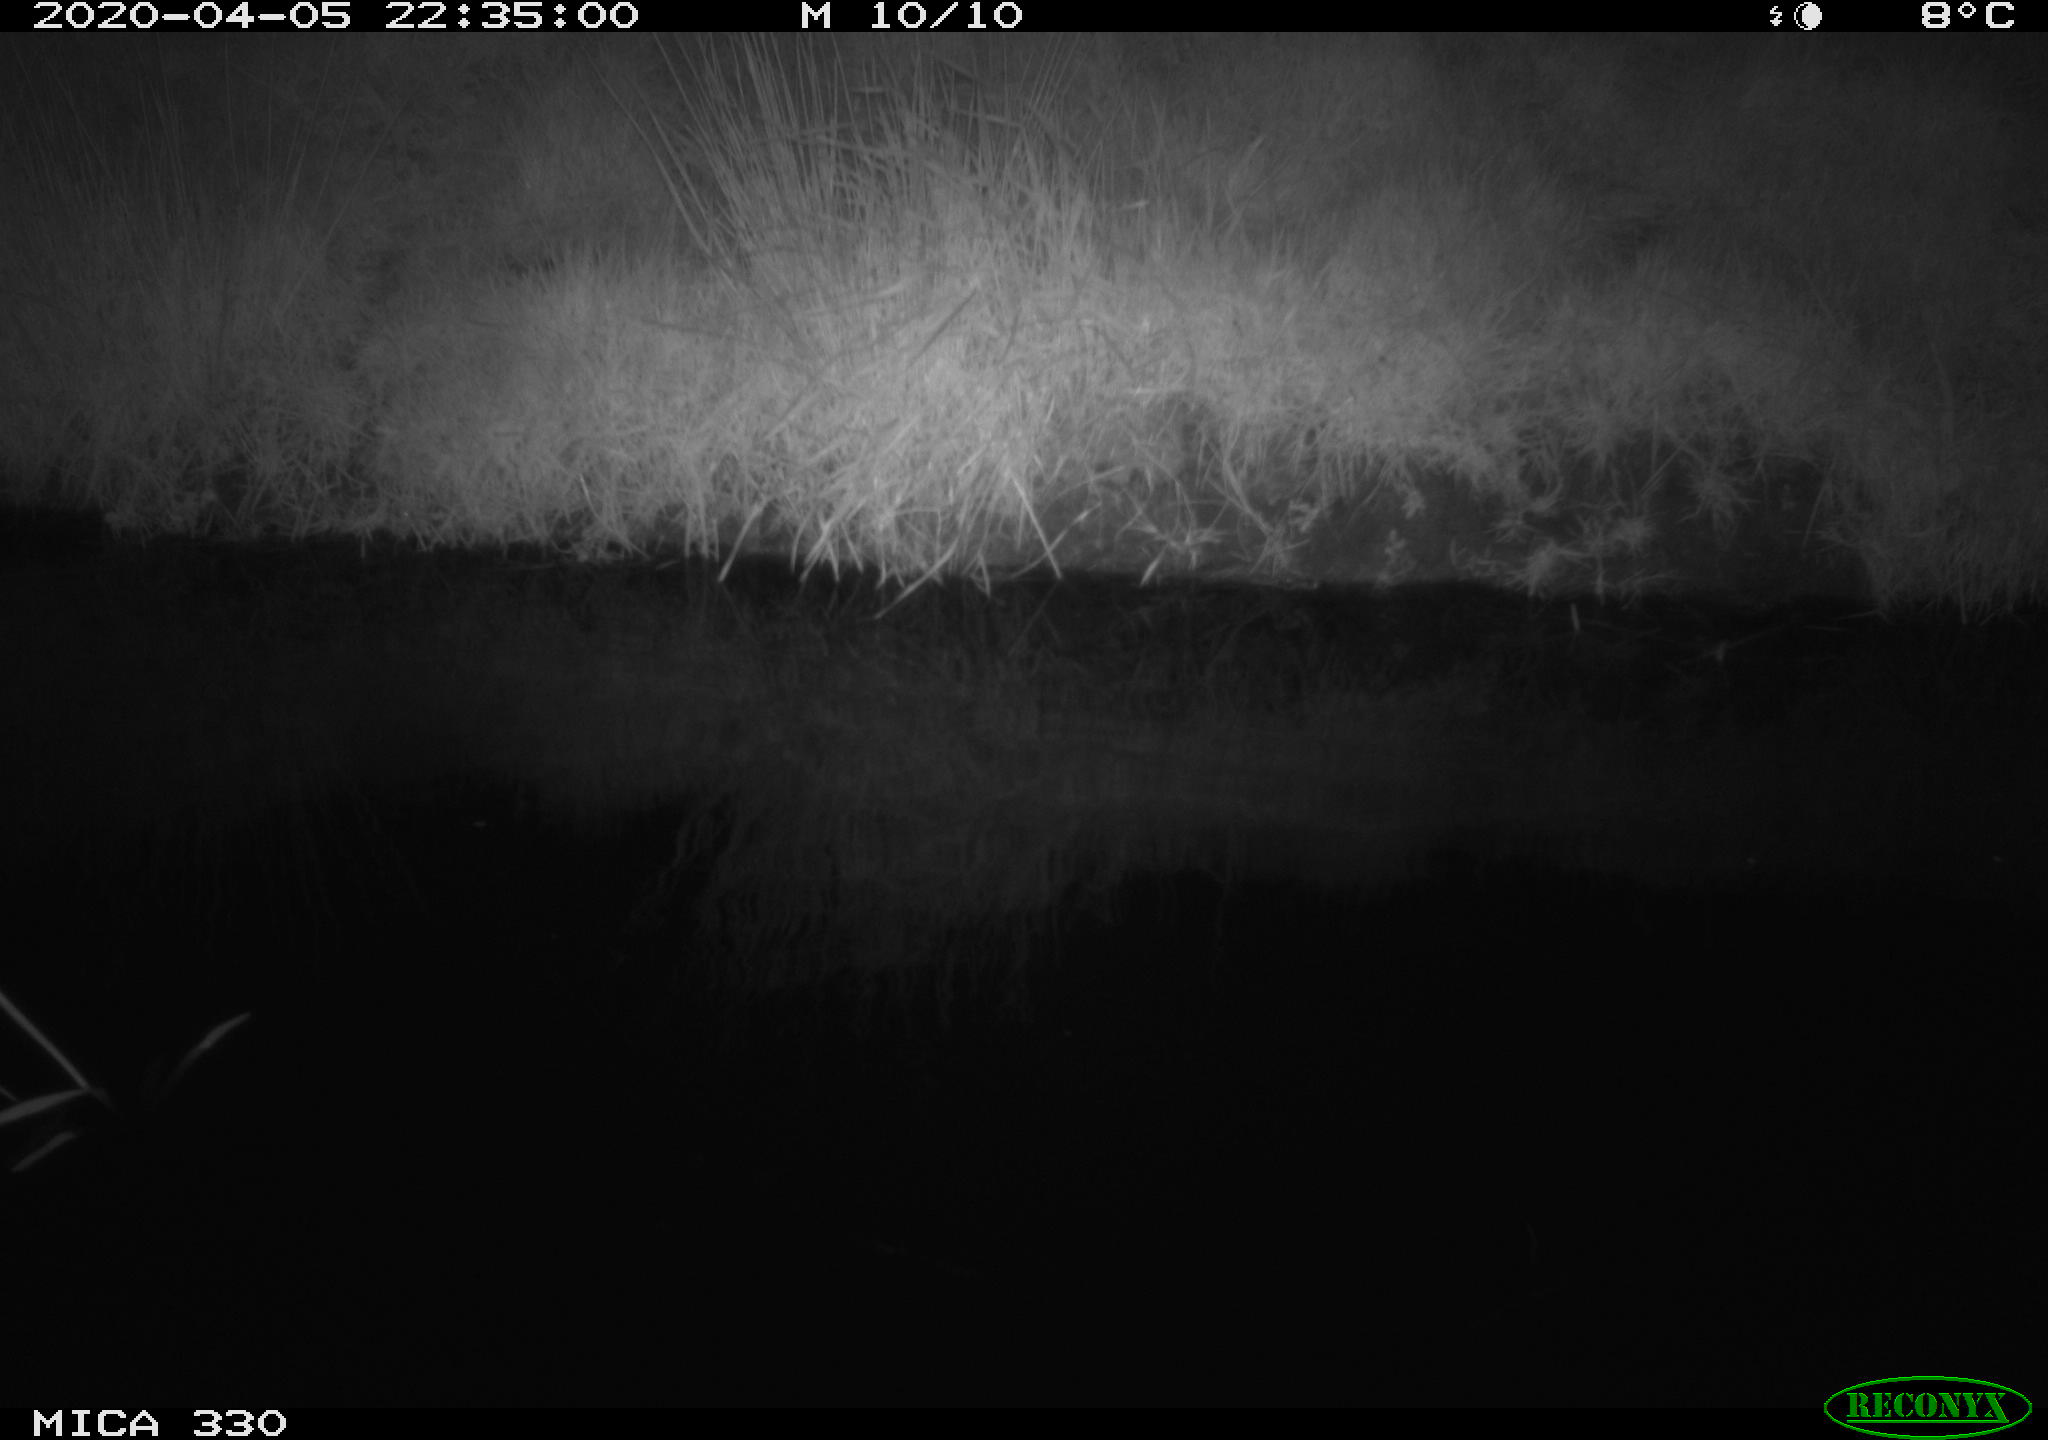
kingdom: Animalia
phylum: Chordata
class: Aves
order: Anseriformes
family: Anatidae
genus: Anas
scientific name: Anas platyrhynchos
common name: Mallard
